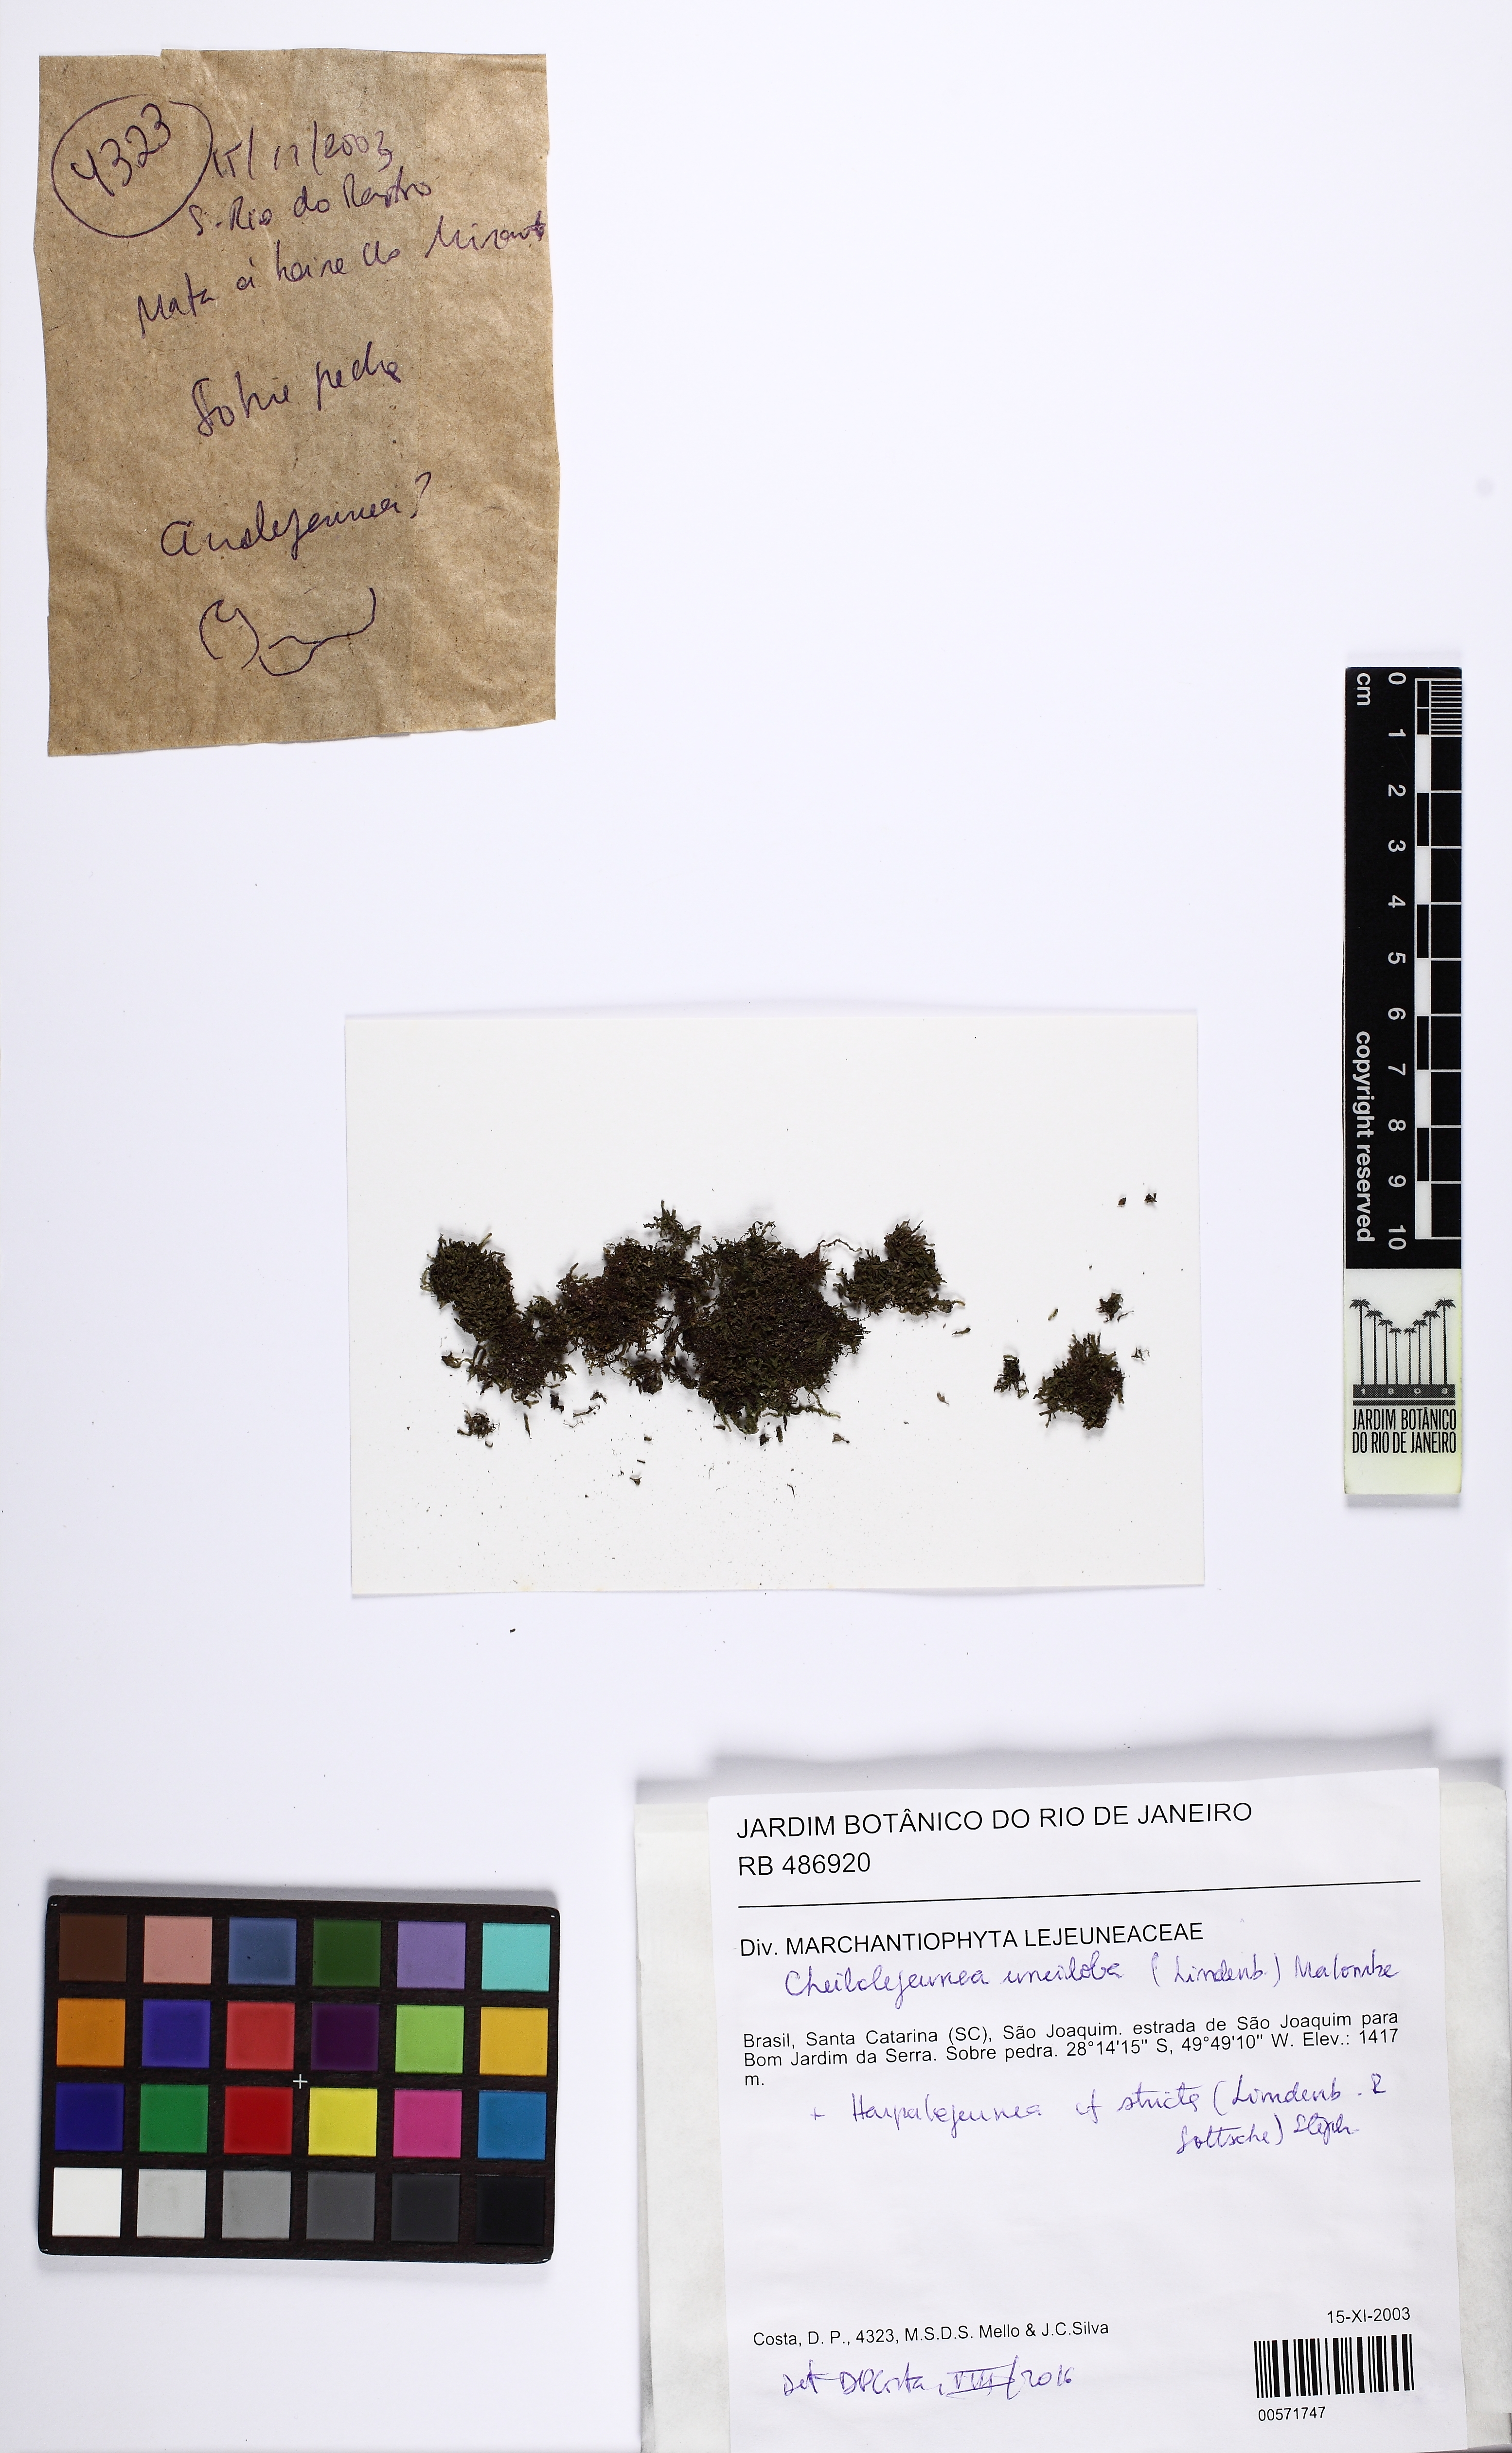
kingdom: Plantae
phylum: Marchantiophyta
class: Jungermanniopsida
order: Porellales
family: Lejeuneaceae
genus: Cheilolejeunea
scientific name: Cheilolejeunea unciloba
